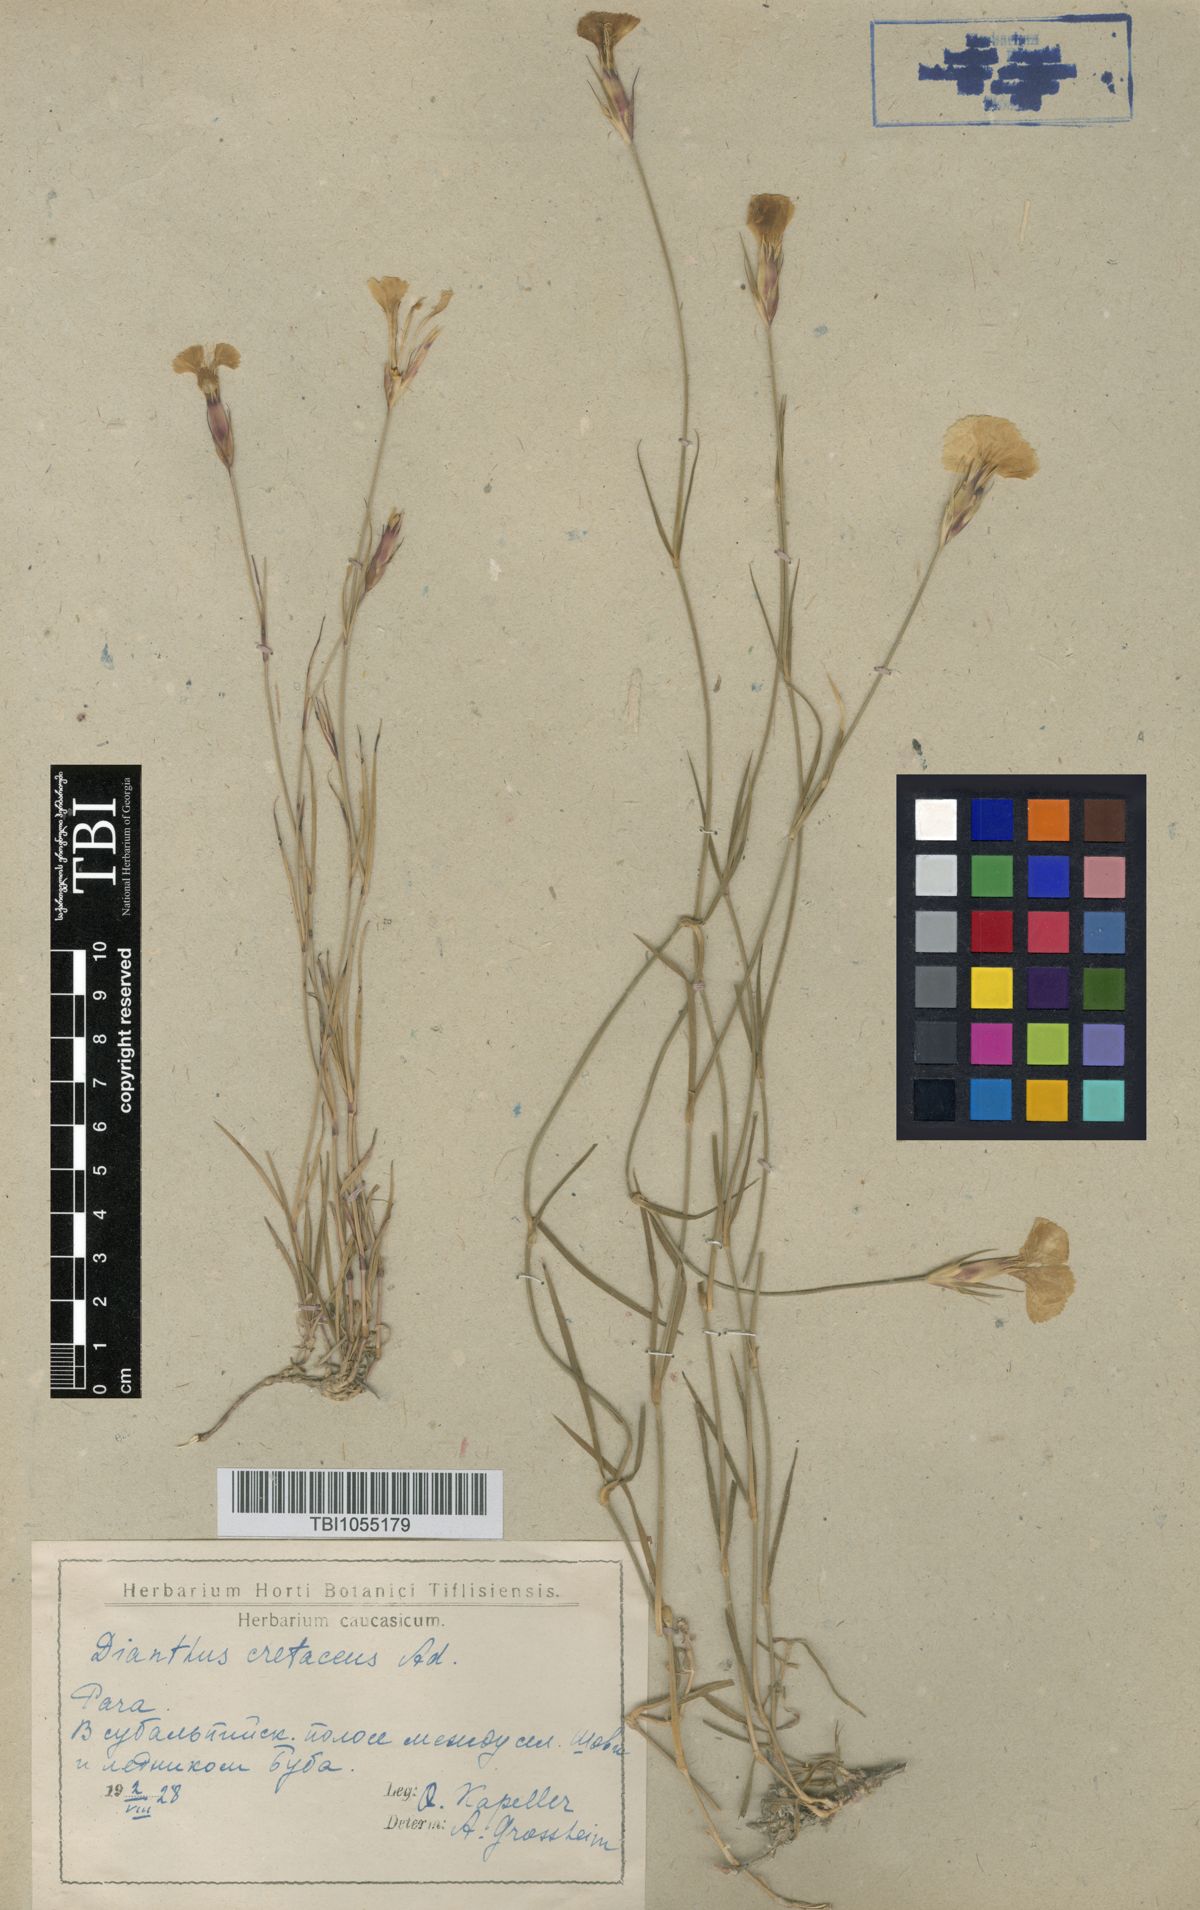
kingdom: Plantae
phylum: Tracheophyta
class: Magnoliopsida
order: Caryophyllales
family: Caryophyllaceae
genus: Dianthus
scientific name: Dianthus cretaceus
